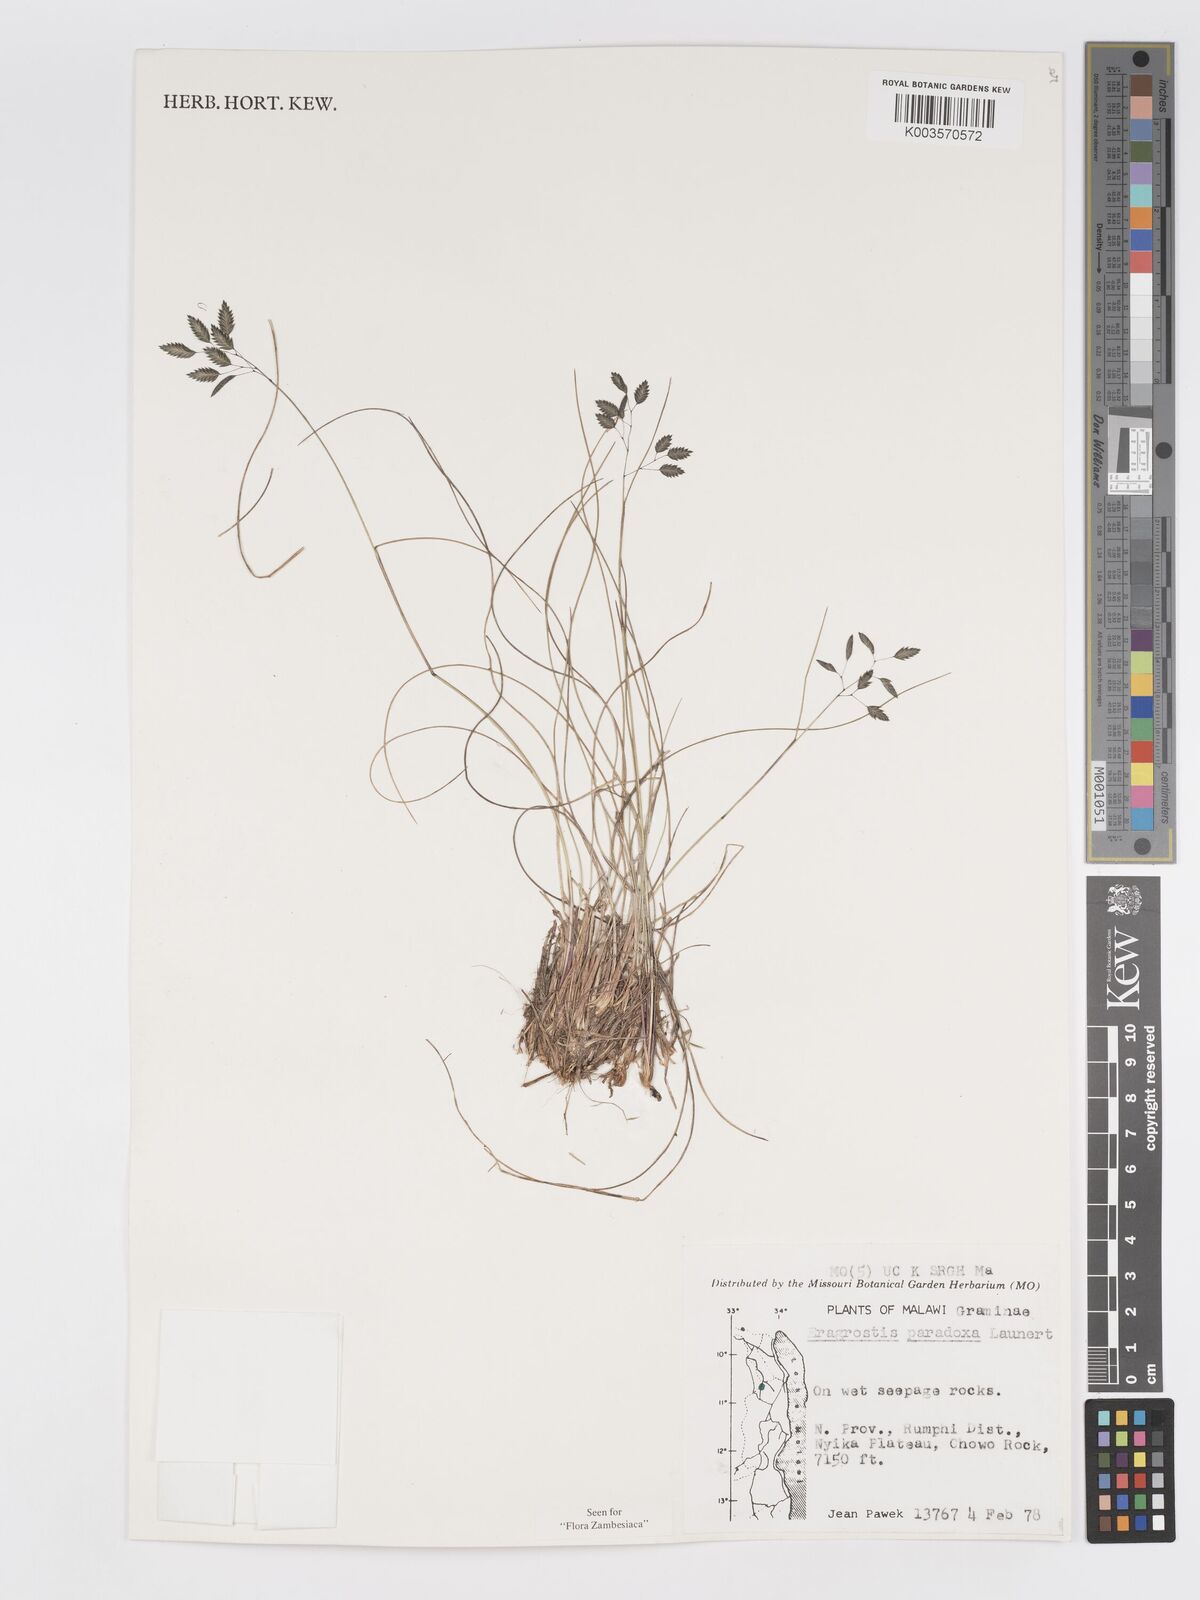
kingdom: Plantae
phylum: Tracheophyta
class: Liliopsida
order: Poales
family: Poaceae
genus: Eragrostis
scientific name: Eragrostis paradoxa
